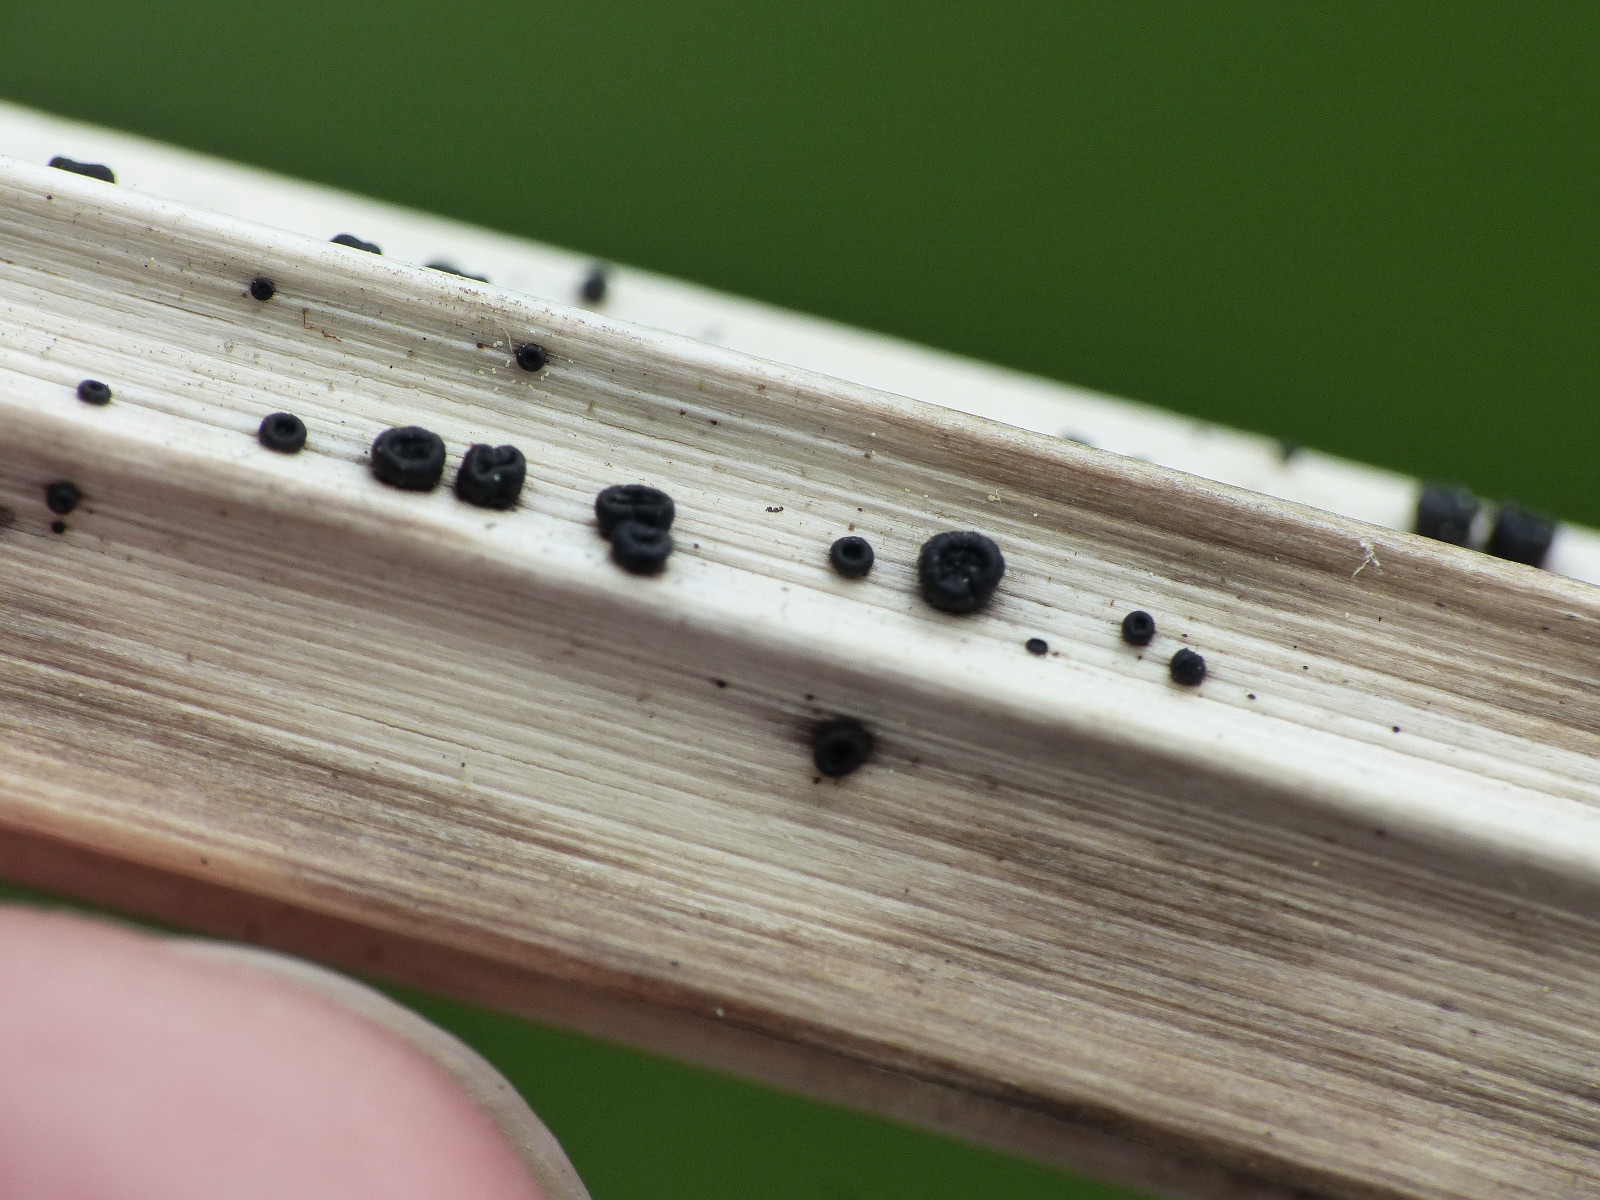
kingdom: Fungi
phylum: Ascomycota
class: Leotiomycetes
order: Helotiales
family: Heterosphaeriaceae
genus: Heterosphaeria
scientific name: Heterosphaeria
